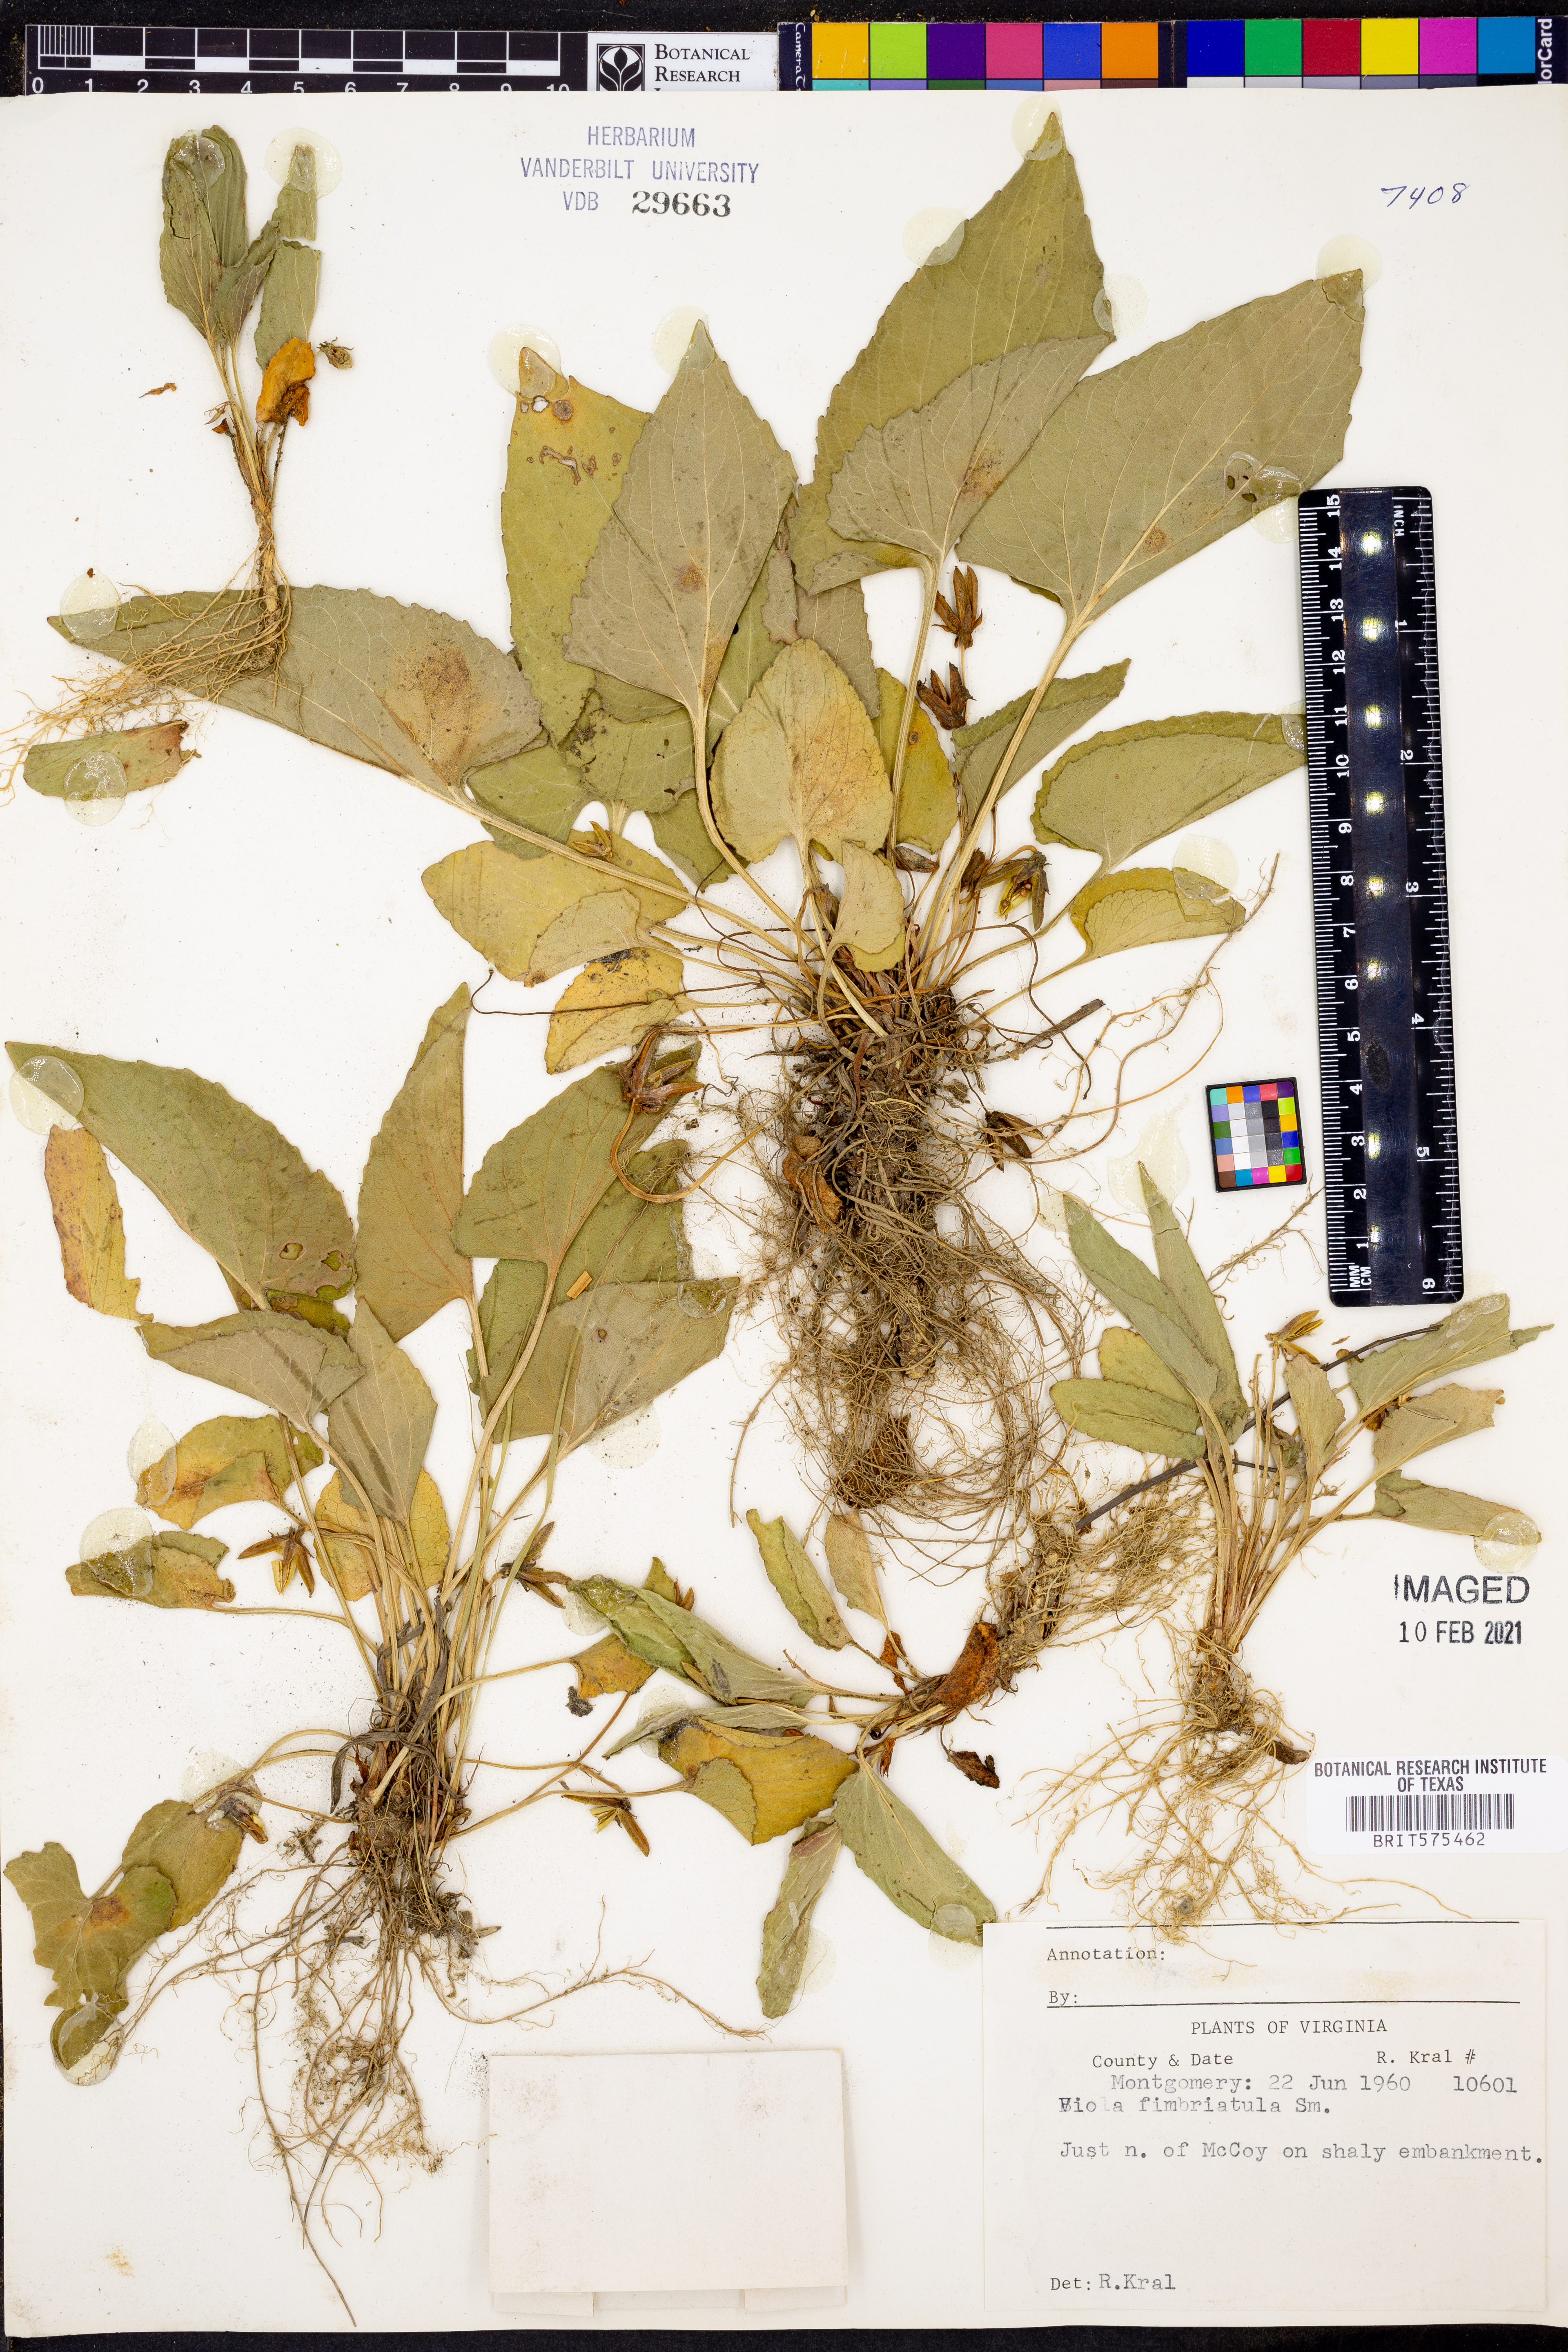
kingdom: Plantae
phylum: Tracheophyta
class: Magnoliopsida
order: Malpighiales
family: Violaceae
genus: Viola
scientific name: Viola fimbriatula
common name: Sand violet
